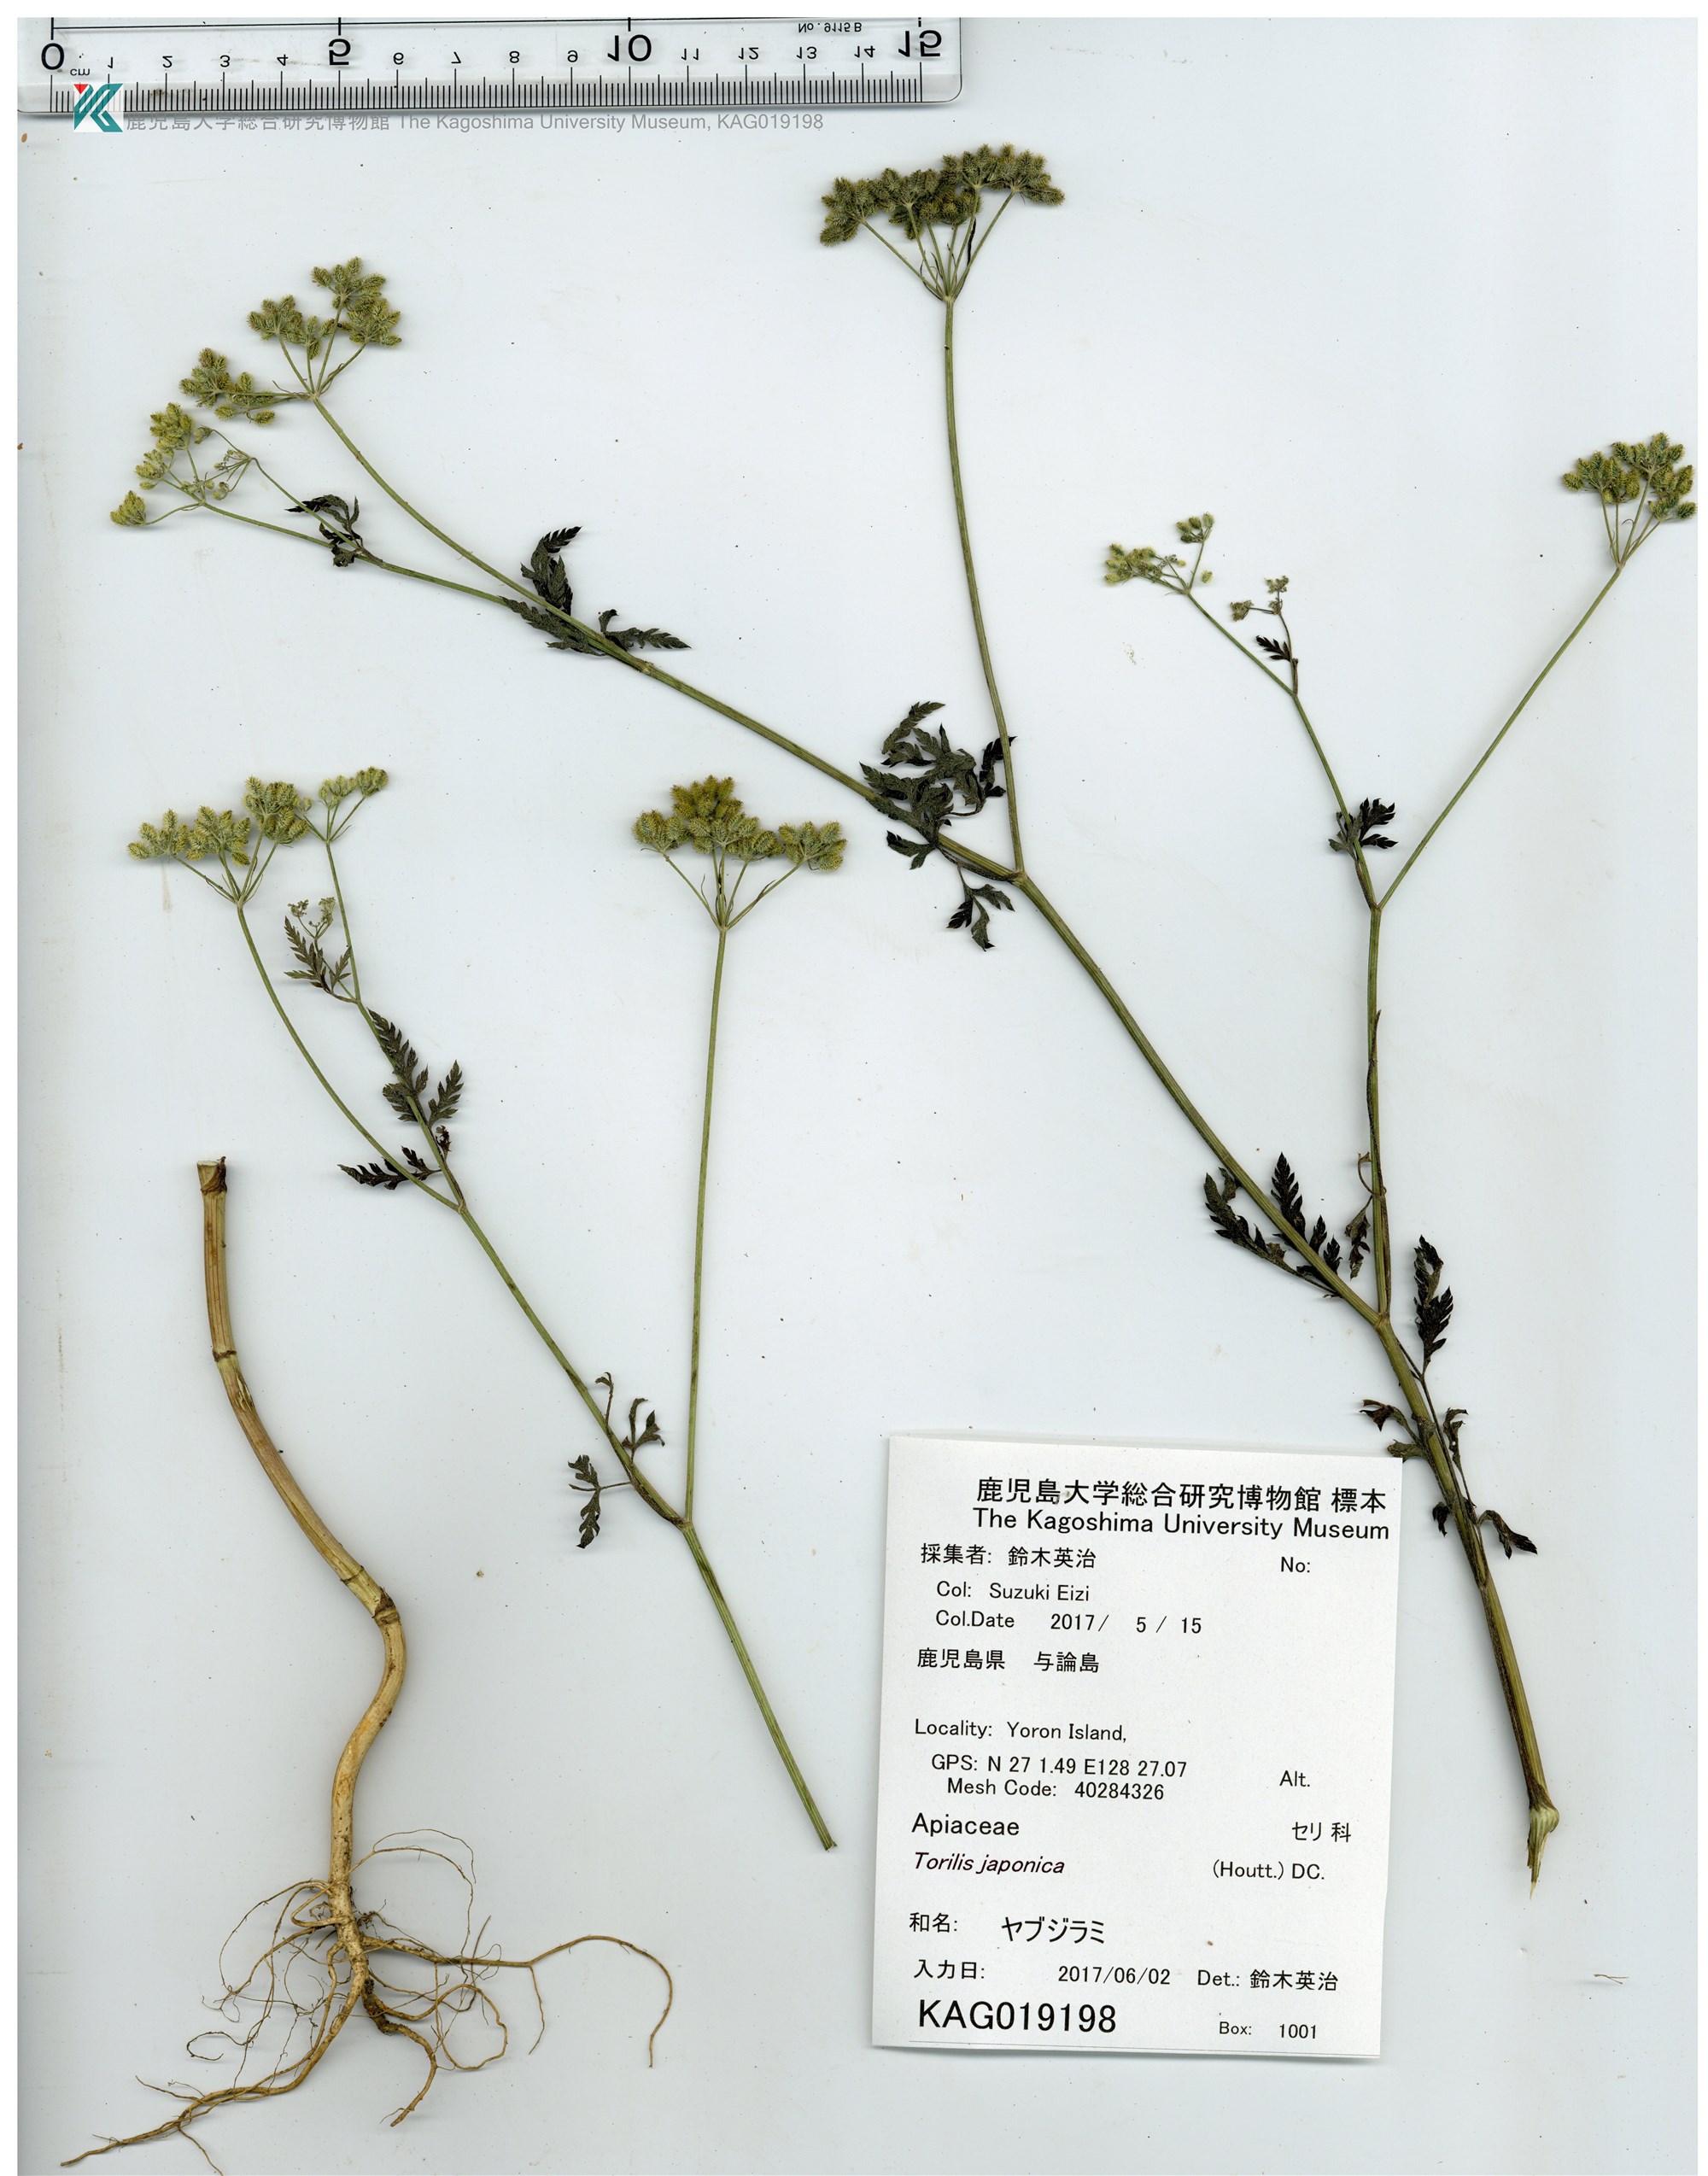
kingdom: Plantae
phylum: Tracheophyta
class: Magnoliopsida
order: Apiales
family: Apiaceae
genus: Torilis
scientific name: Torilis japonica
